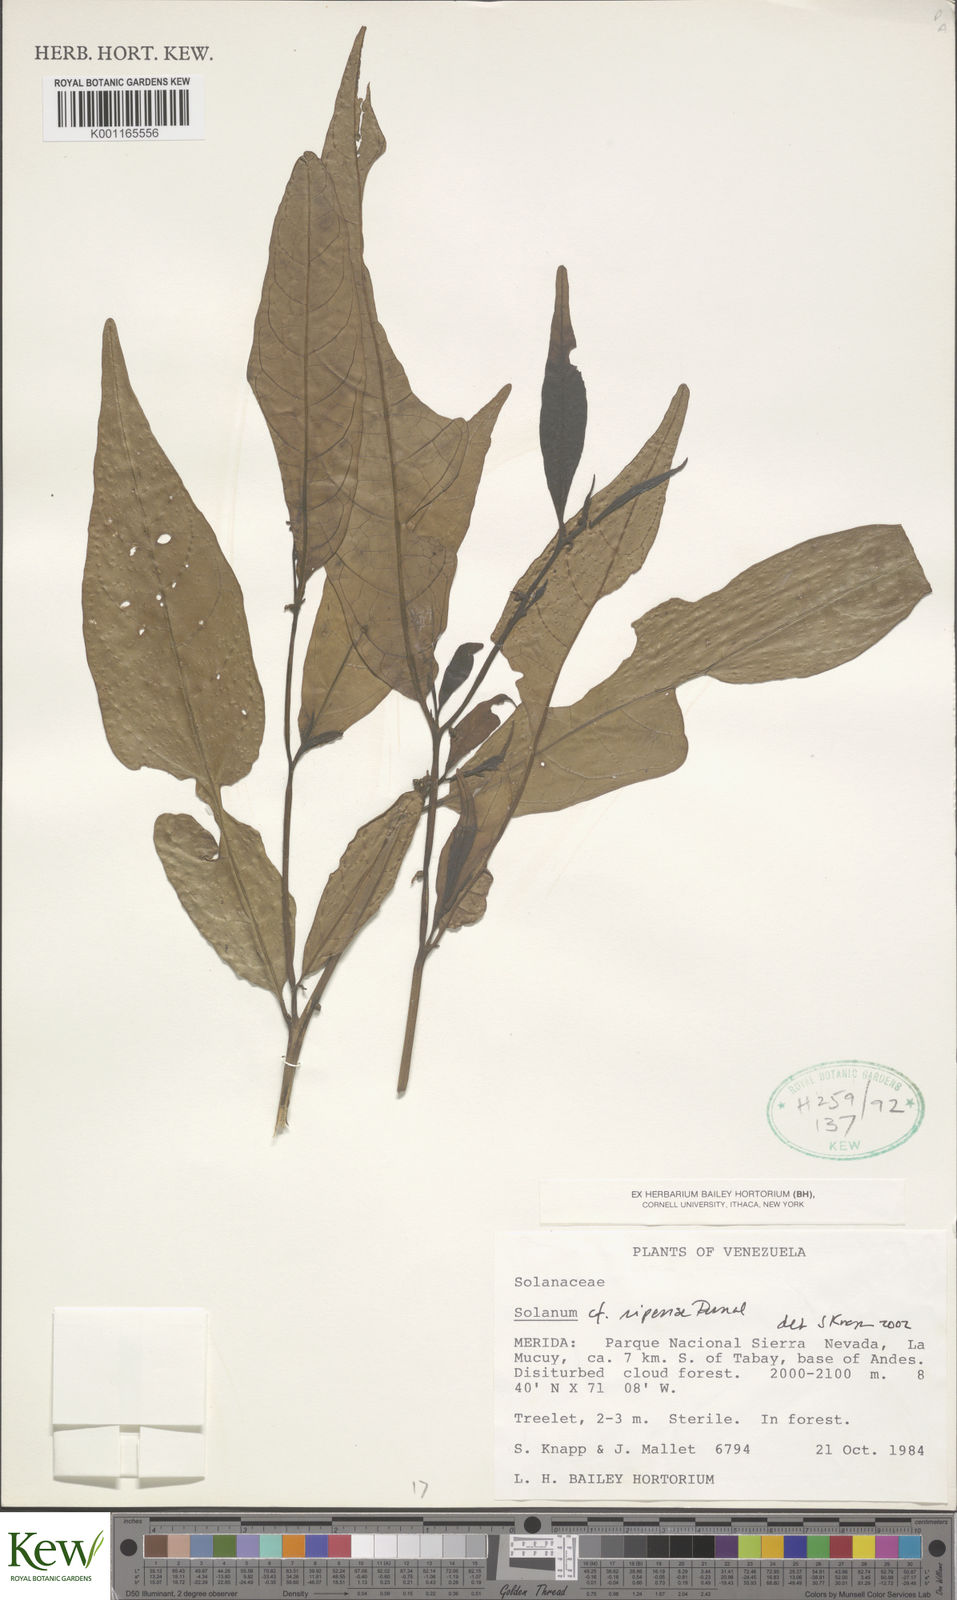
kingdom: Plantae
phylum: Tracheophyta
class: Magnoliopsida
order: Solanales
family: Solanaceae
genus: Solanum
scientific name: Solanum ripense
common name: Mérida nightshade
